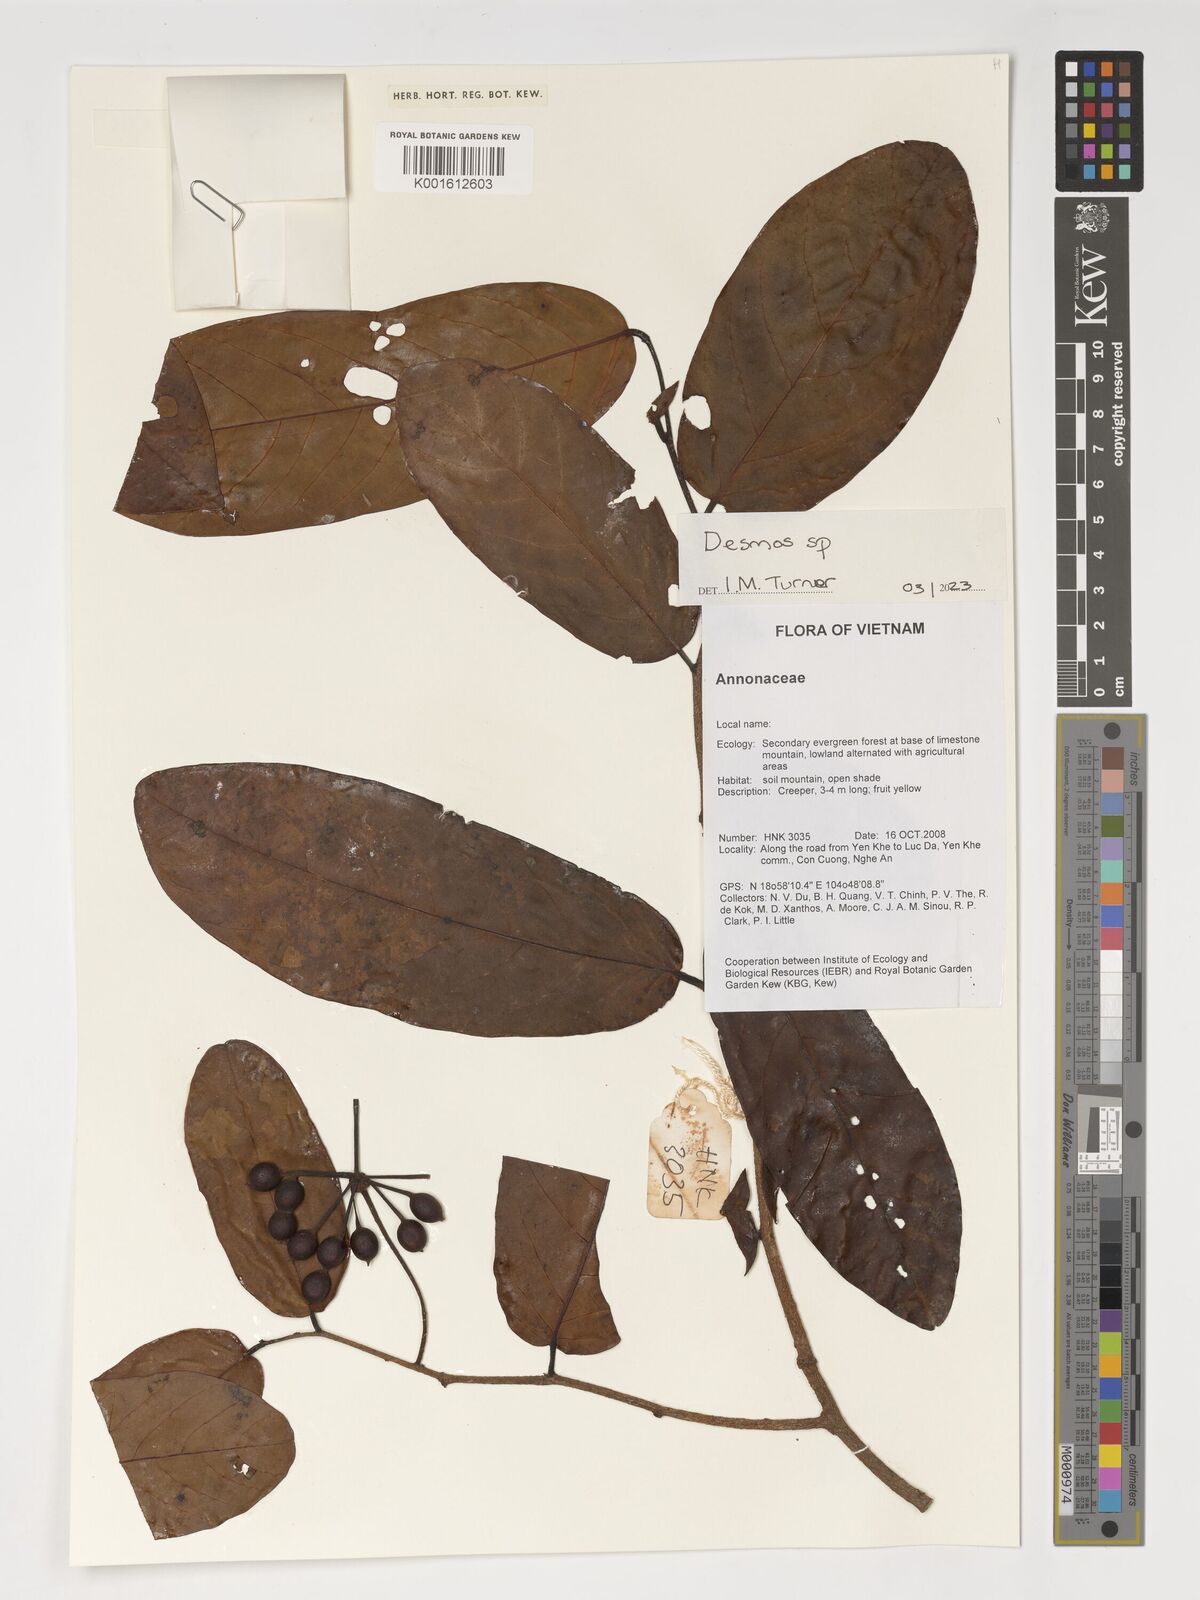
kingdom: Plantae
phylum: Tracheophyta
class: Magnoliopsida
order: Magnoliales
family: Annonaceae
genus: Desmos
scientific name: Desmos
